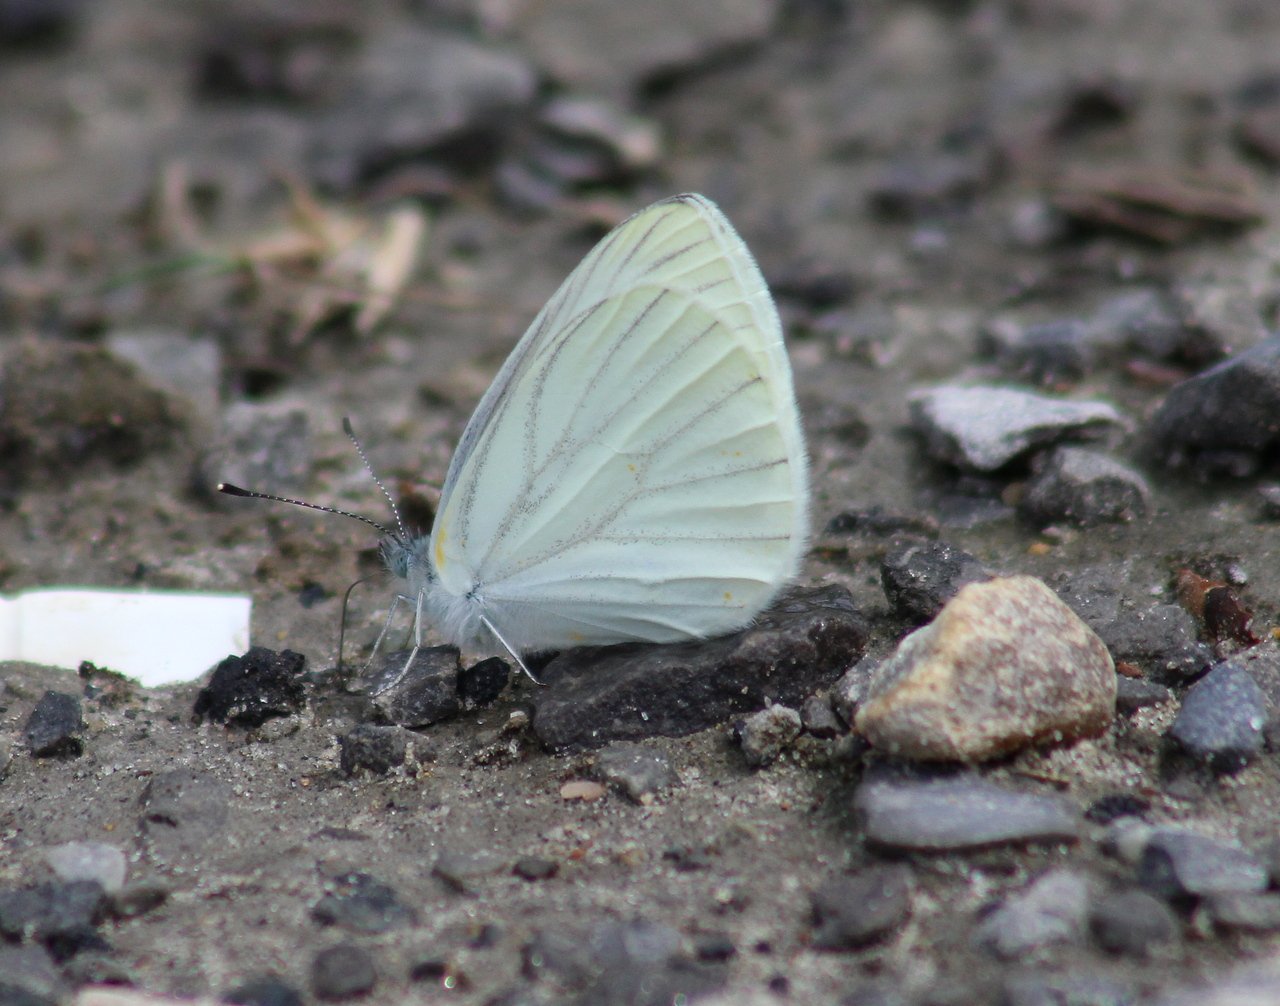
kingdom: Animalia
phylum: Arthropoda
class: Insecta
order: Lepidoptera
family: Pieridae
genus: Pieris
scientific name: Pieris oleracea
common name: Mustard White
